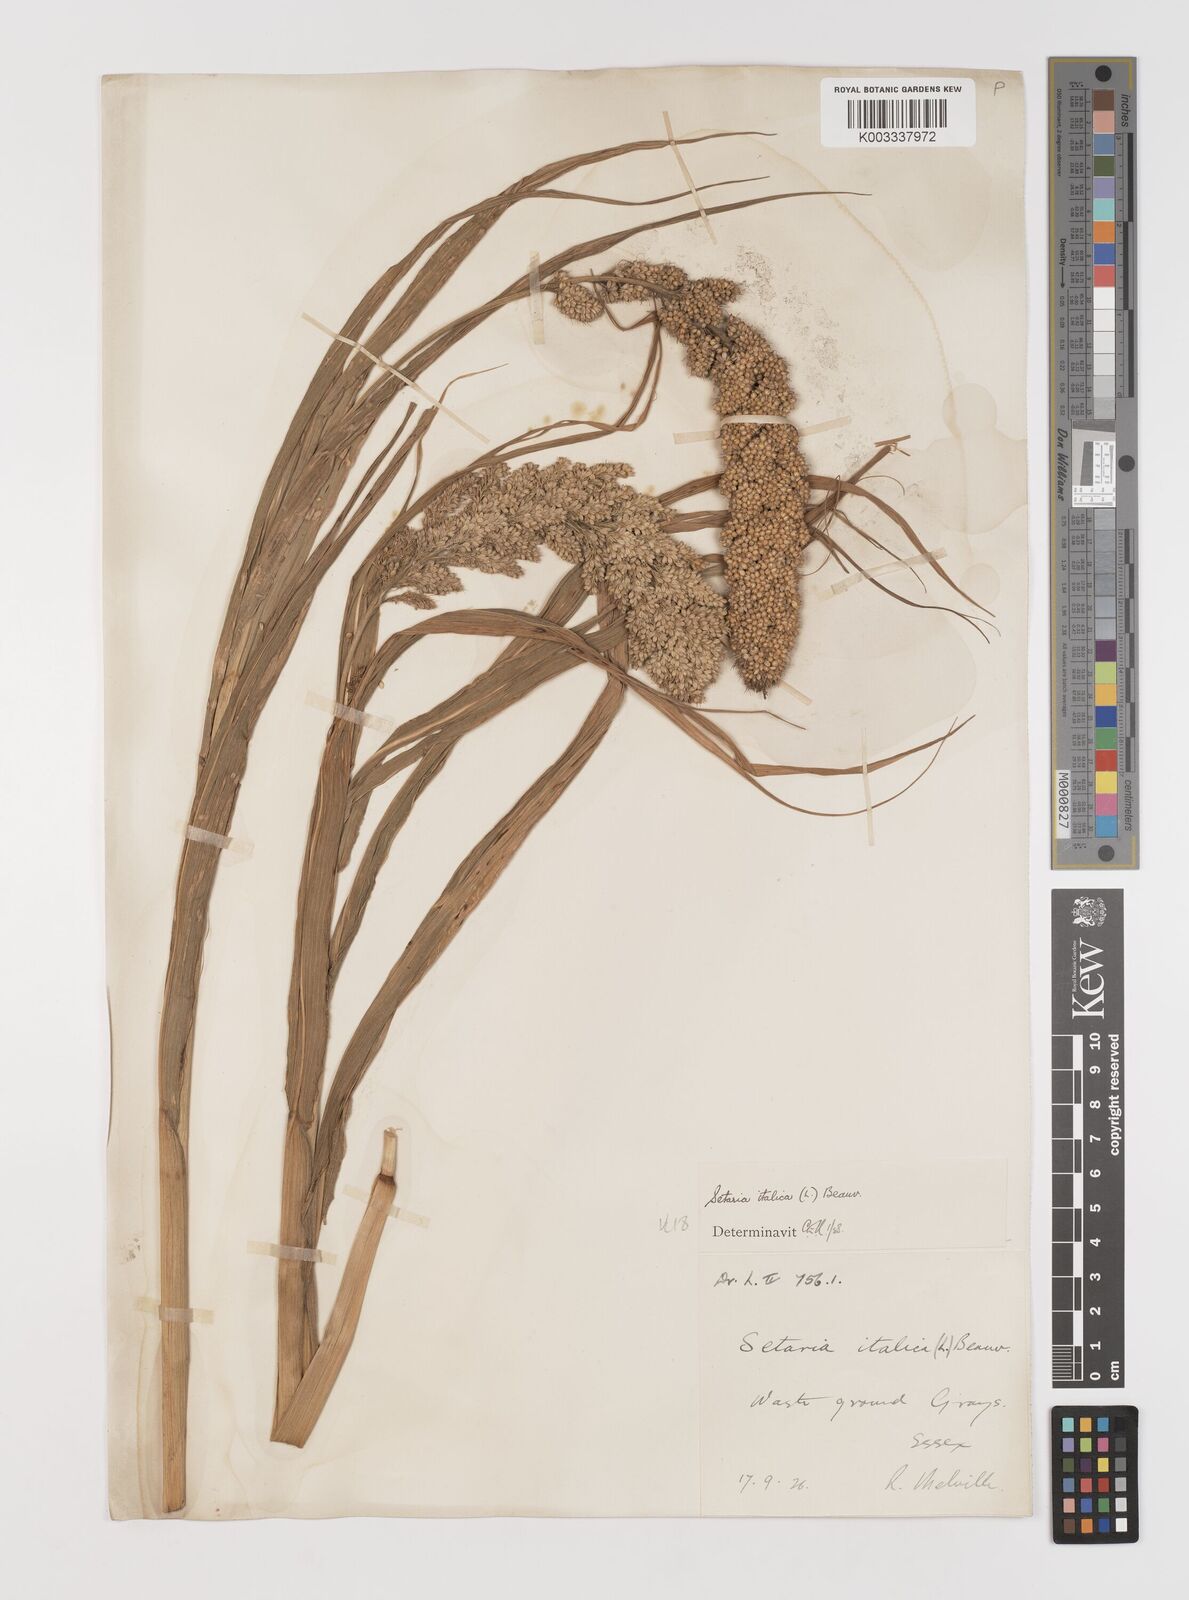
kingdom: Plantae
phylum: Tracheophyta
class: Liliopsida
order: Poales
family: Poaceae
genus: Setaria
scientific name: Setaria italica
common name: Foxtail bristle-grass
